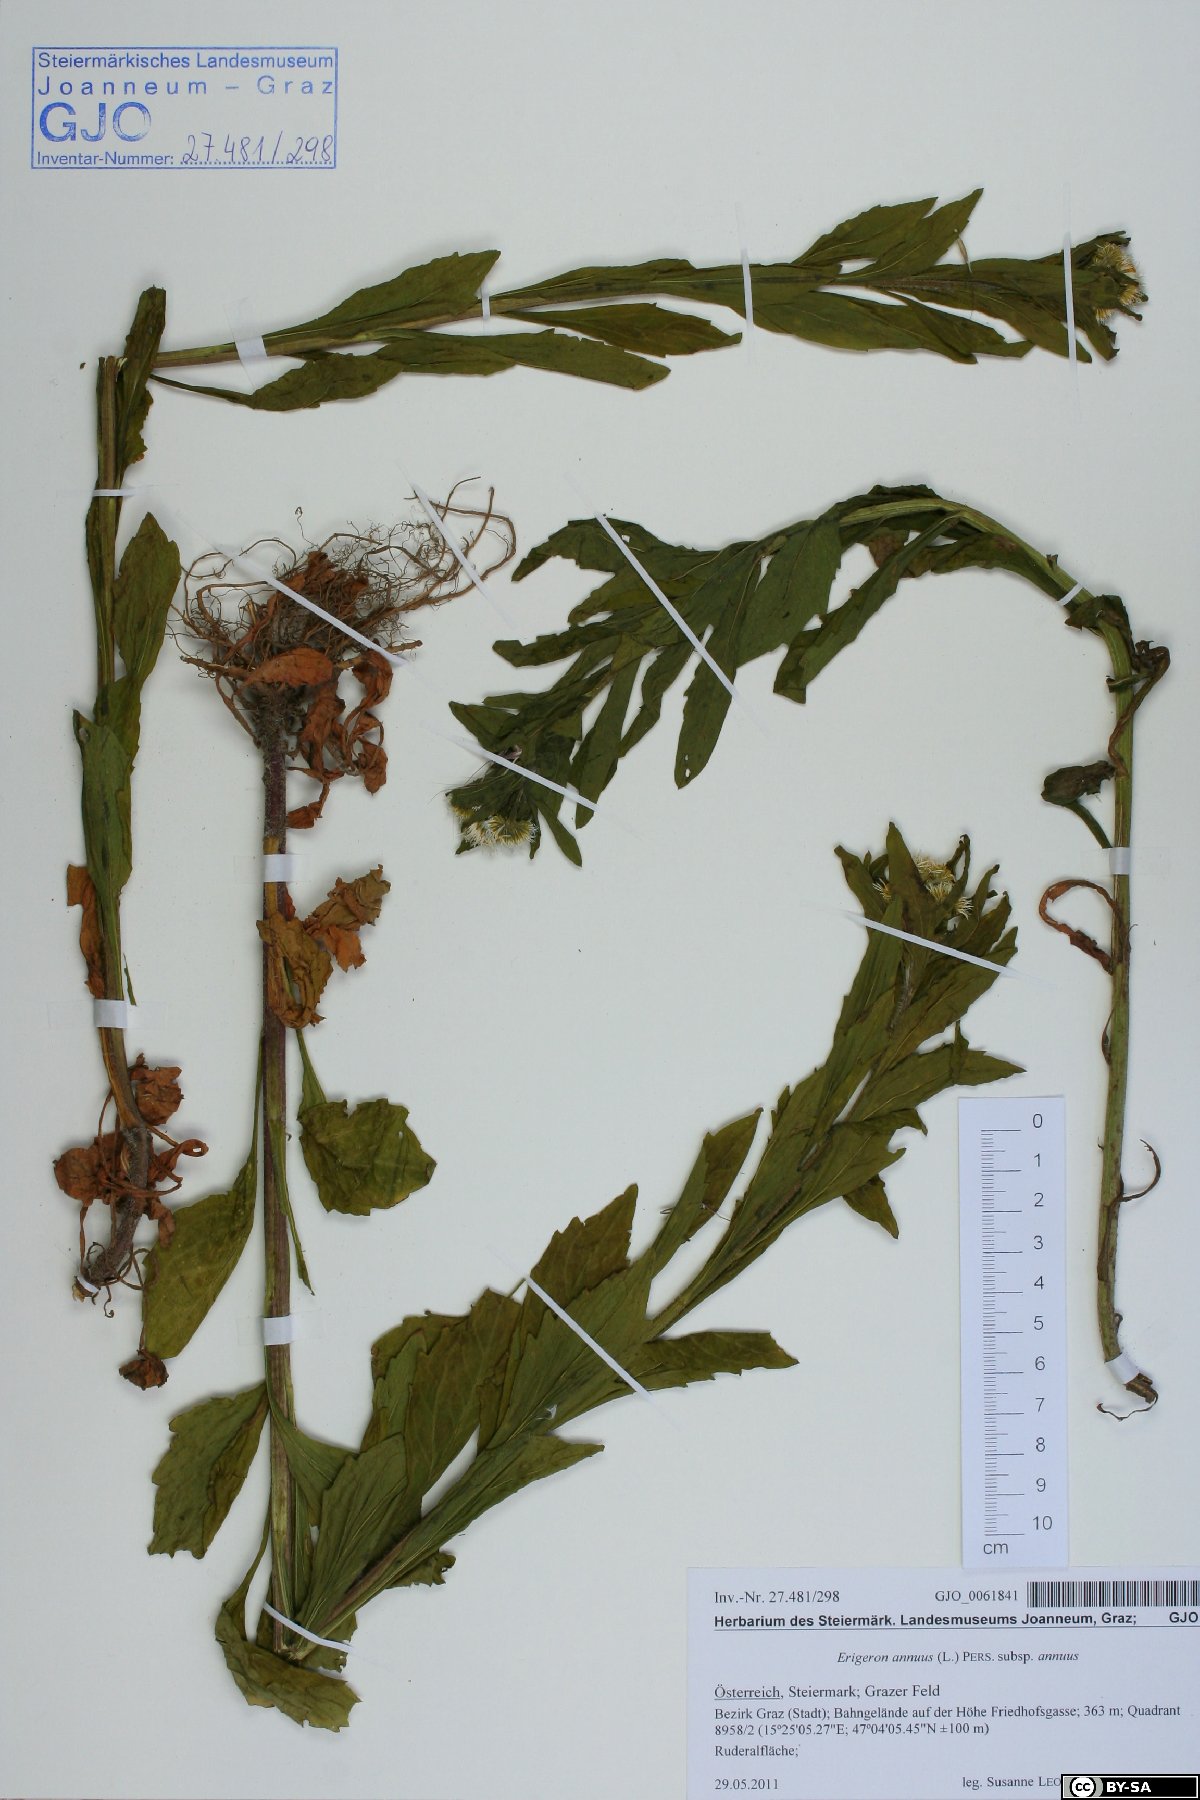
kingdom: Plantae
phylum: Tracheophyta
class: Magnoliopsida
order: Asterales
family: Asteraceae
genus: Erigeron
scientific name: Erigeron annuus
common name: Tall fleabane
